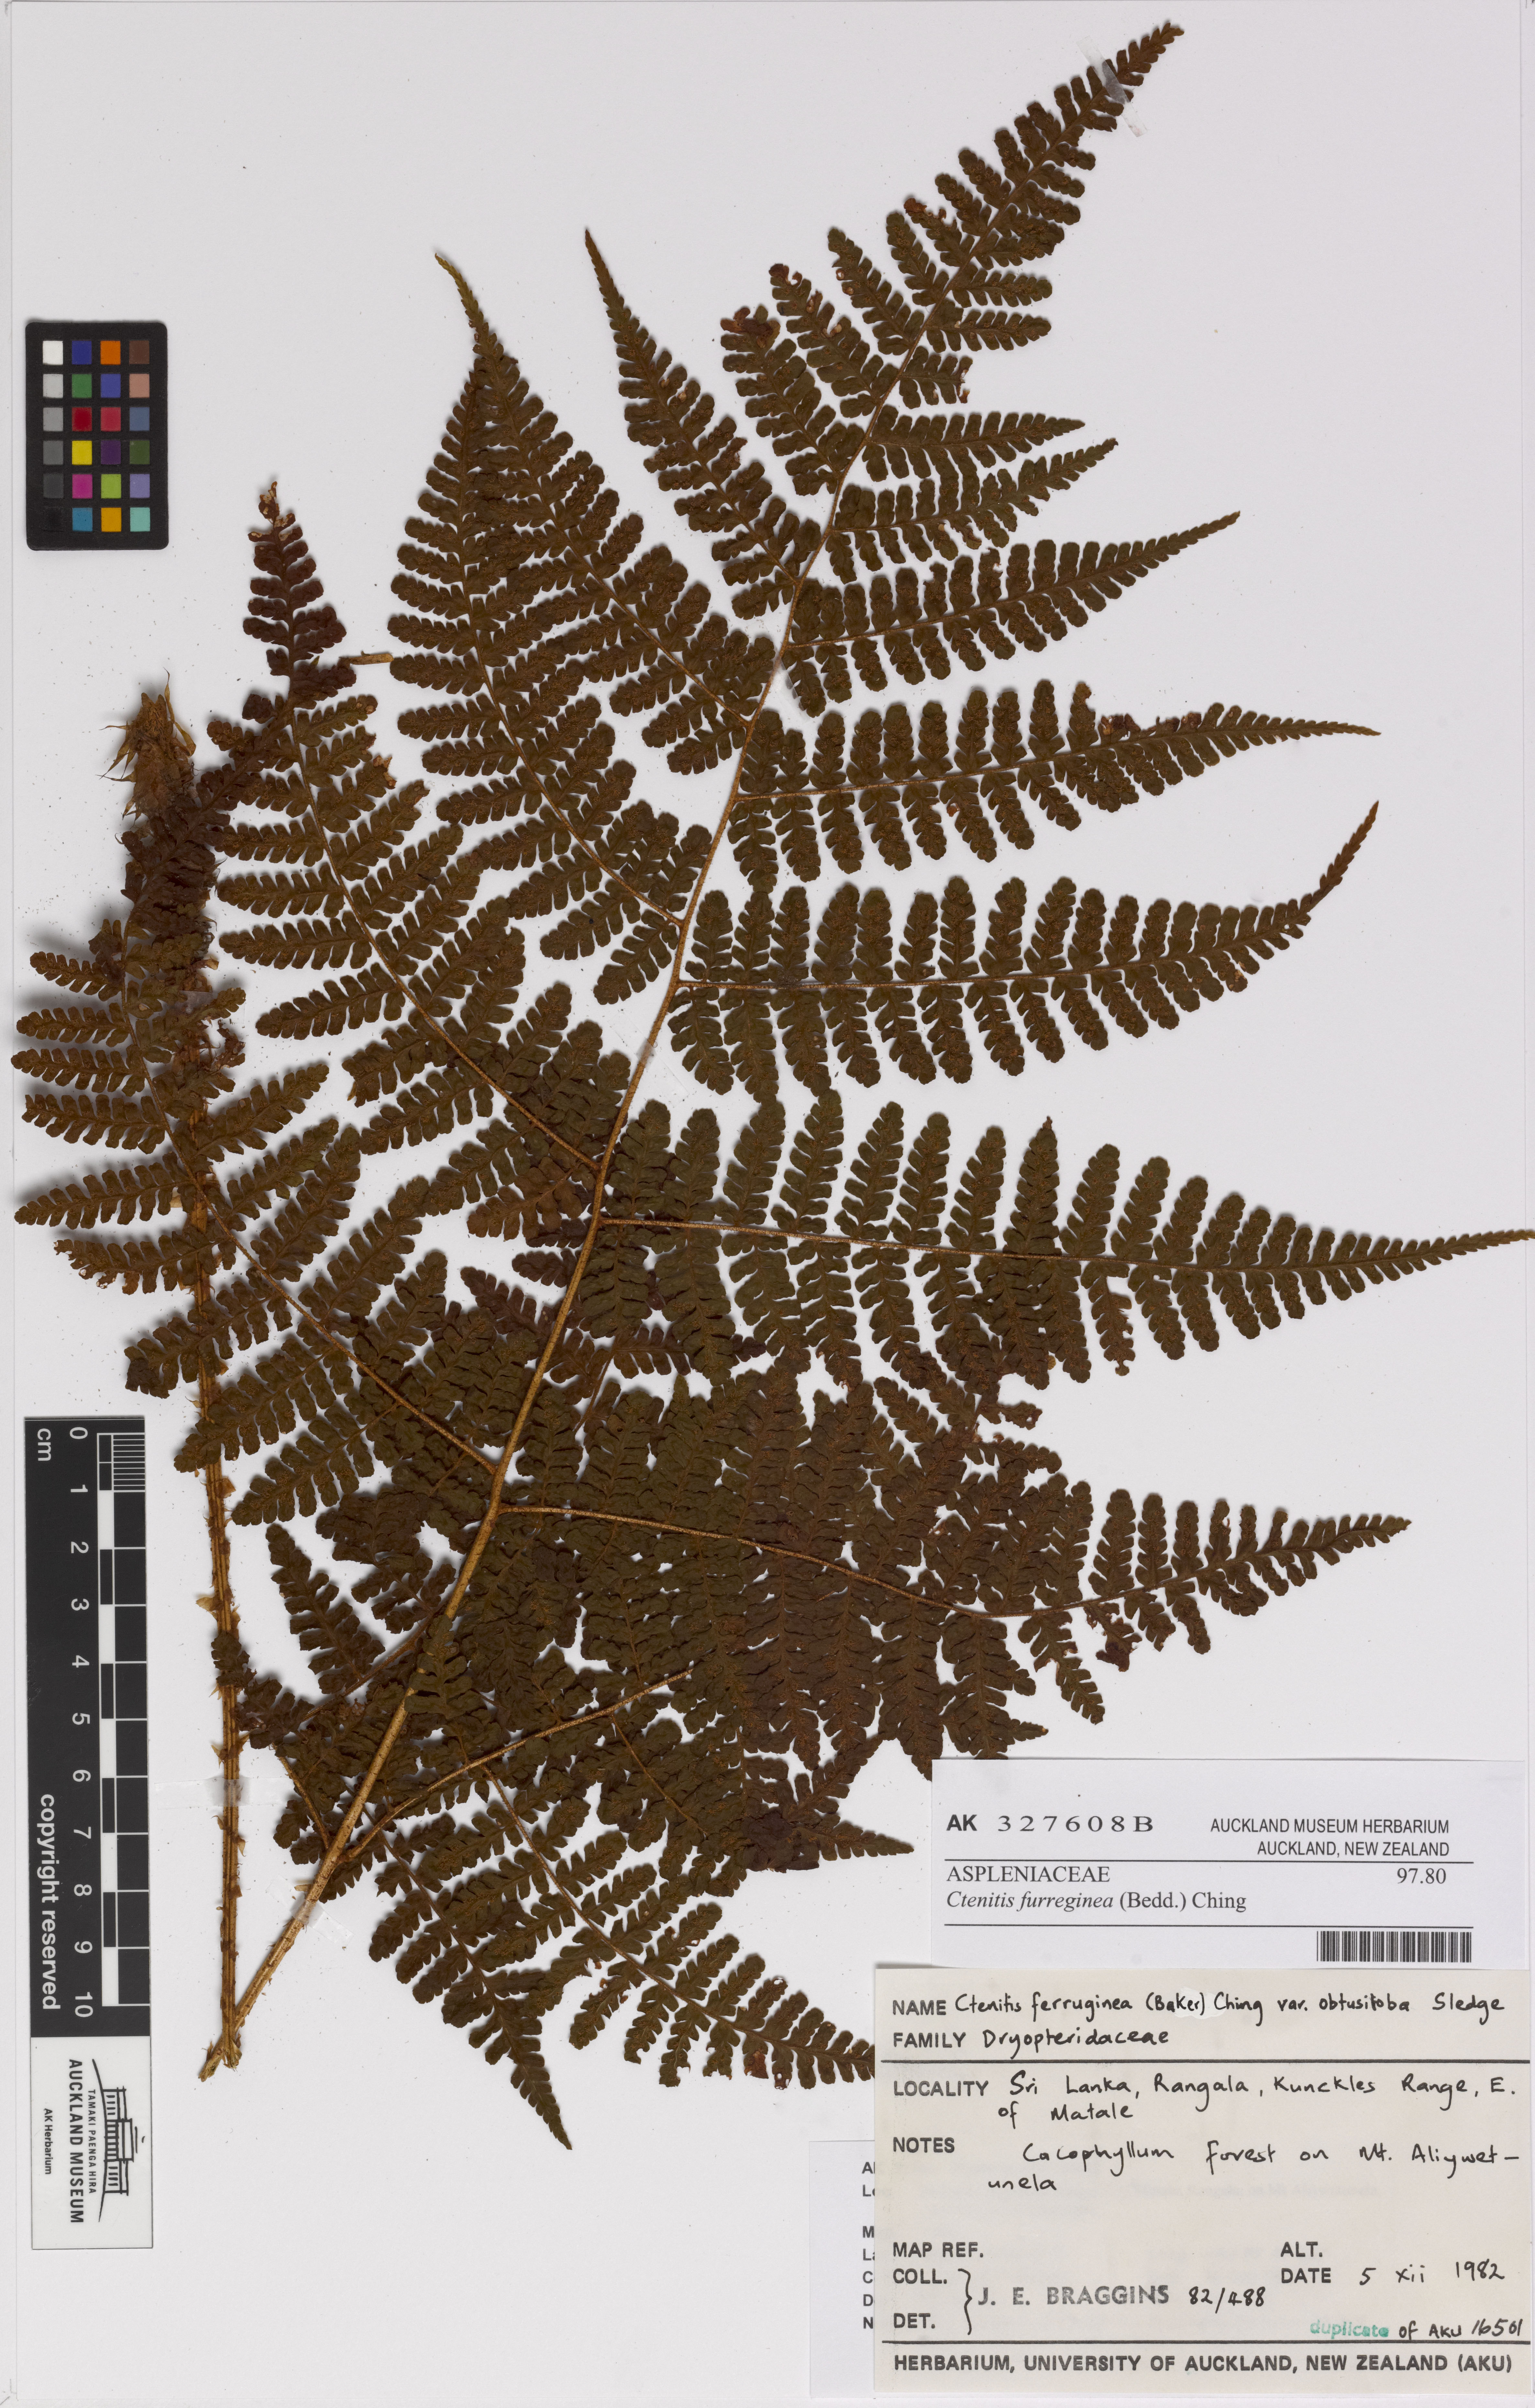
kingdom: Plantae
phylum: Tracheophyta
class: Polypodiopsida
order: Polypodiales
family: Dryopteridaceae
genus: Dryopteris
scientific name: Dryopteris obtusiloba
